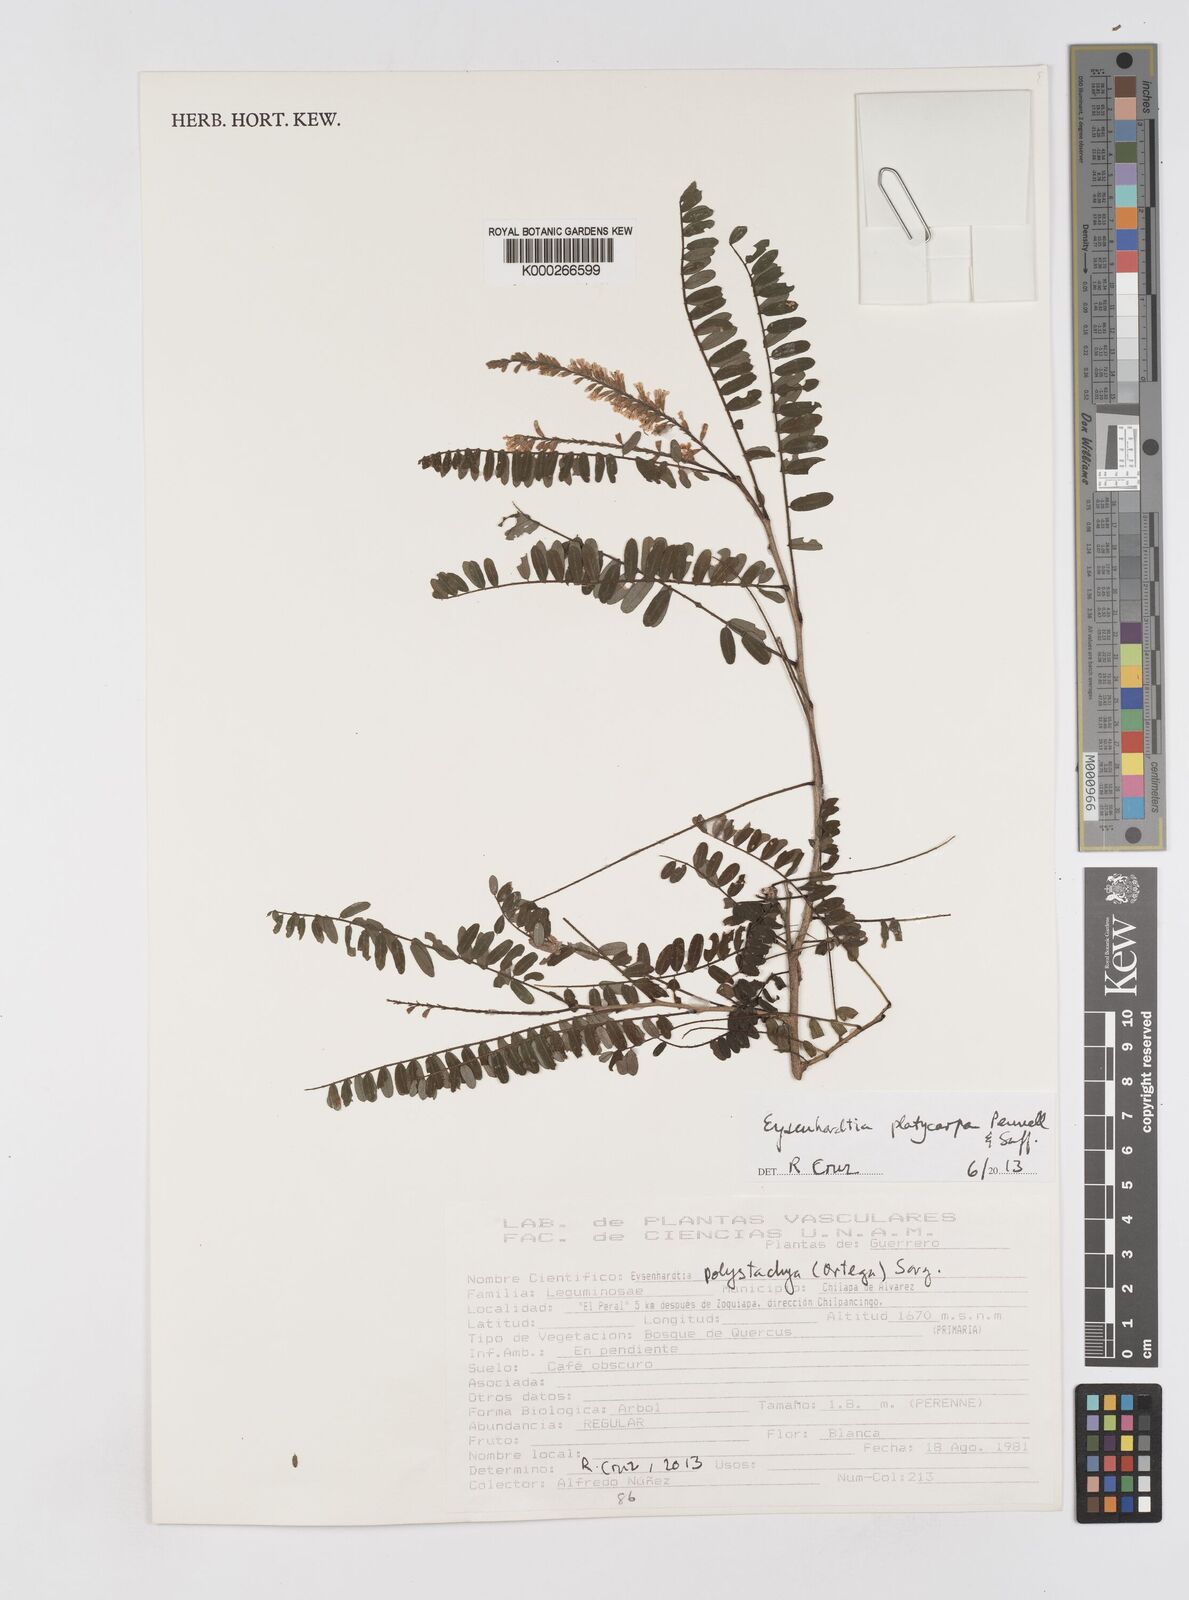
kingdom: Plantae
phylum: Tracheophyta
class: Magnoliopsida
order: Fabales
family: Fabaceae
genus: Eysenhardtia
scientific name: Eysenhardtia platycarpa
